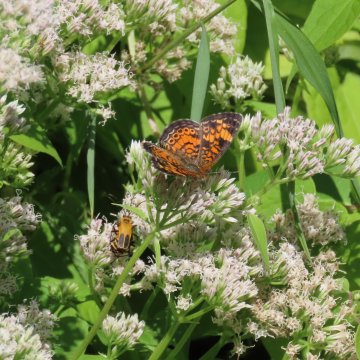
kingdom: Animalia
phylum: Arthropoda
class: Insecta
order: Lepidoptera
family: Nymphalidae
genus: Phyciodes
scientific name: Phyciodes tharos
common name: Pearl Crescent
